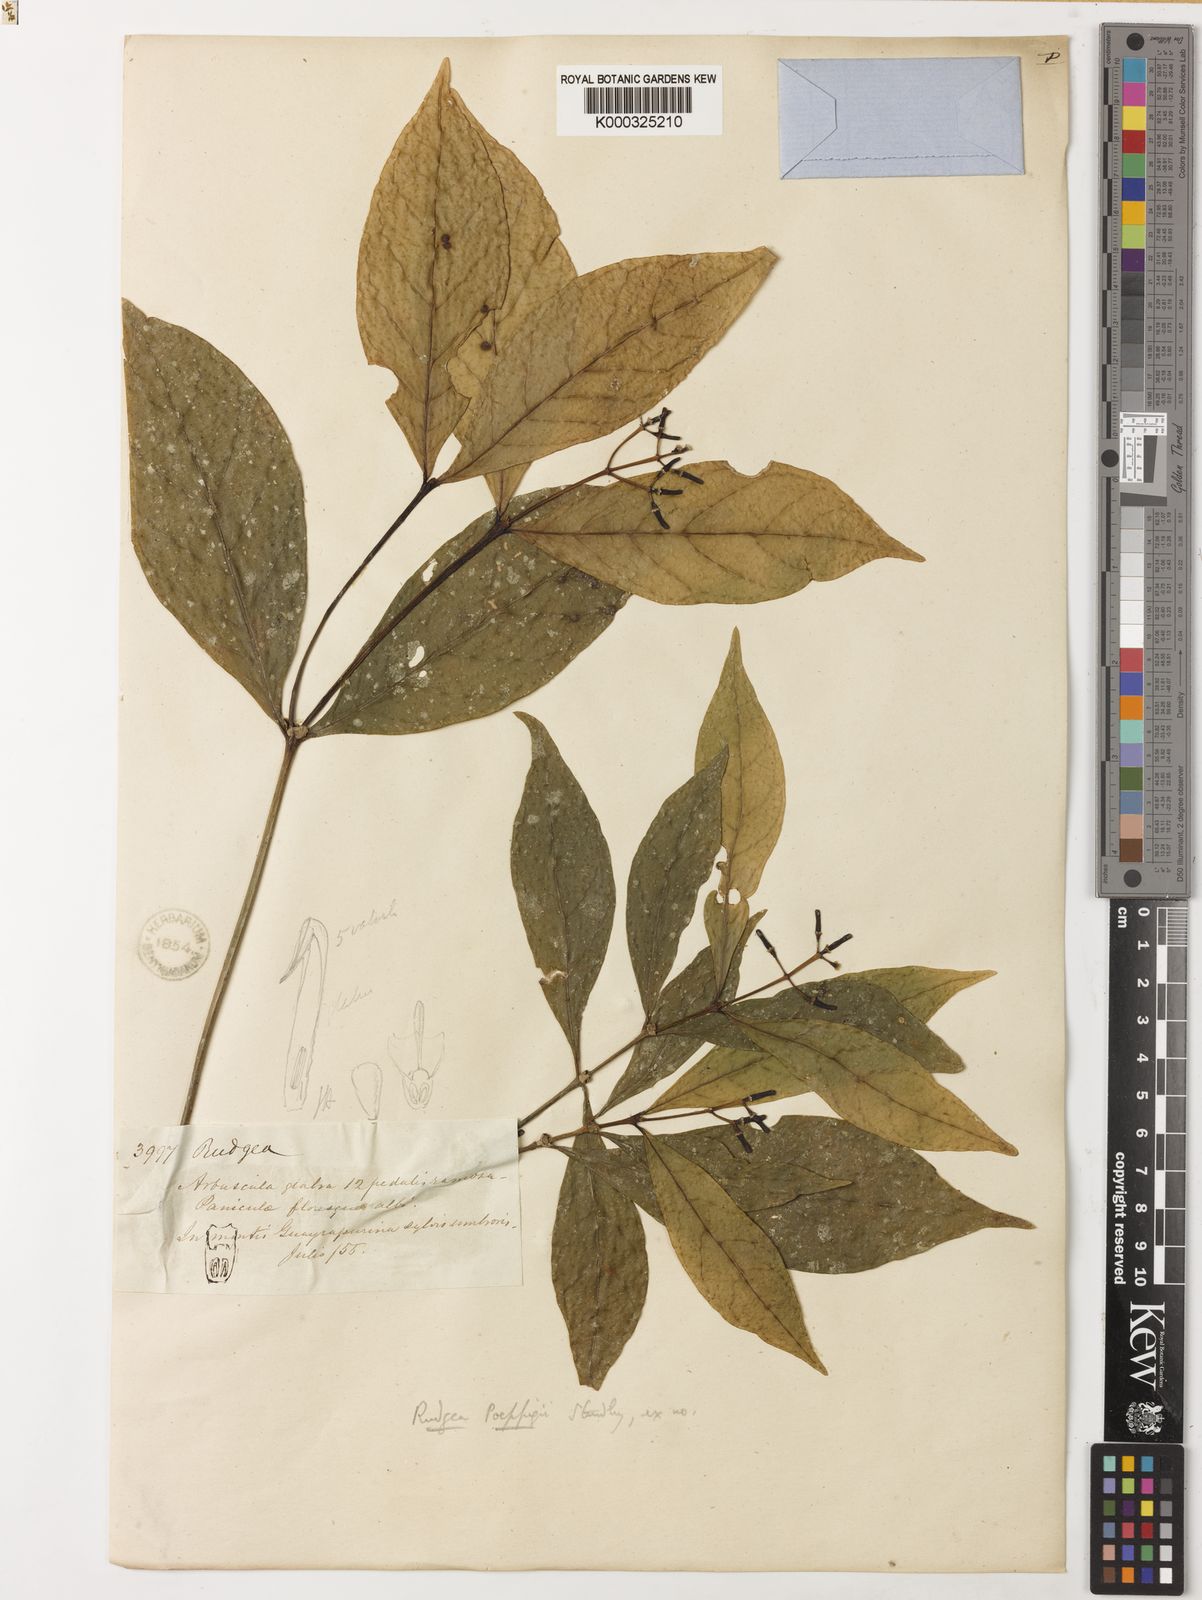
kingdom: Plantae
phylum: Tracheophyta
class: Magnoliopsida
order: Gentianales
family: Rubiaceae
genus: Rudgea
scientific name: Rudgea poeppigii
